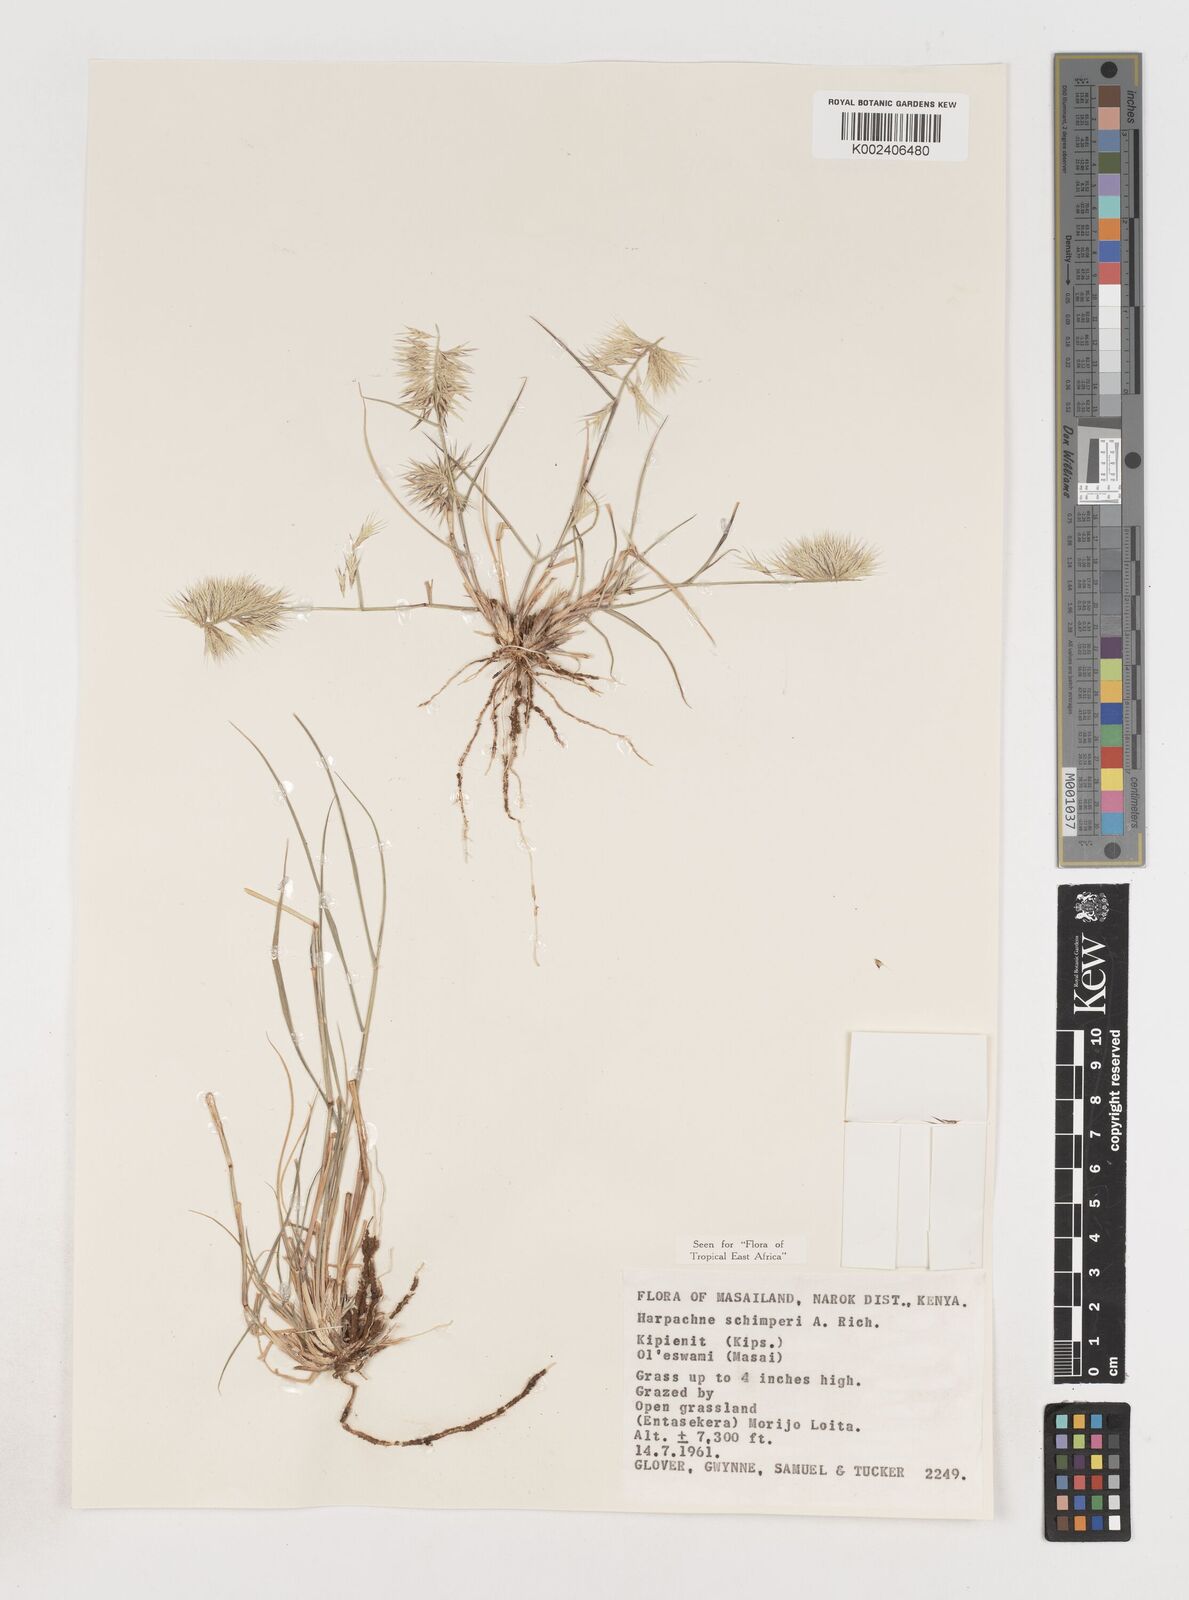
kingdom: Plantae
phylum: Tracheophyta
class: Liliopsida
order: Poales
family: Poaceae
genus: Harpachne
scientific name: Harpachne schimperi
